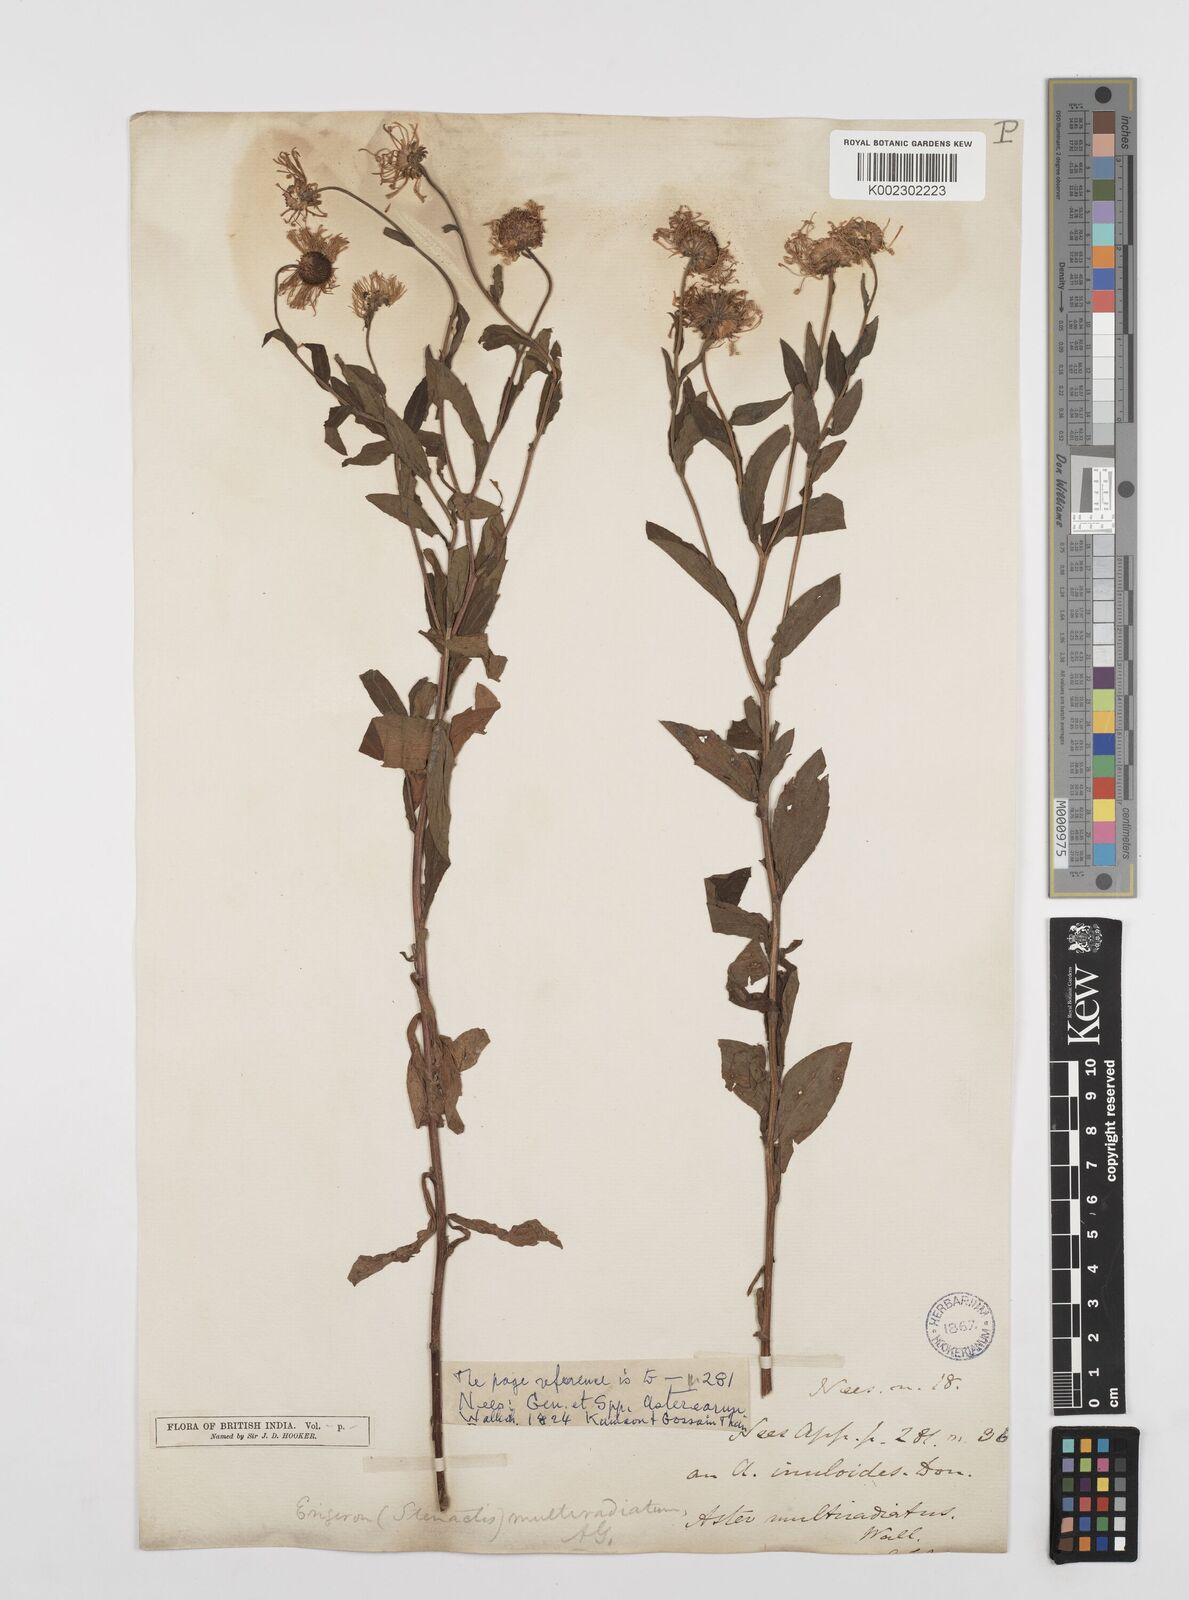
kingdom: Plantae
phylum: Tracheophyta
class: Magnoliopsida
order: Asterales
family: Asteraceae
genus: Erigeron
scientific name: Erigeron acris
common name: Blue fleabane
